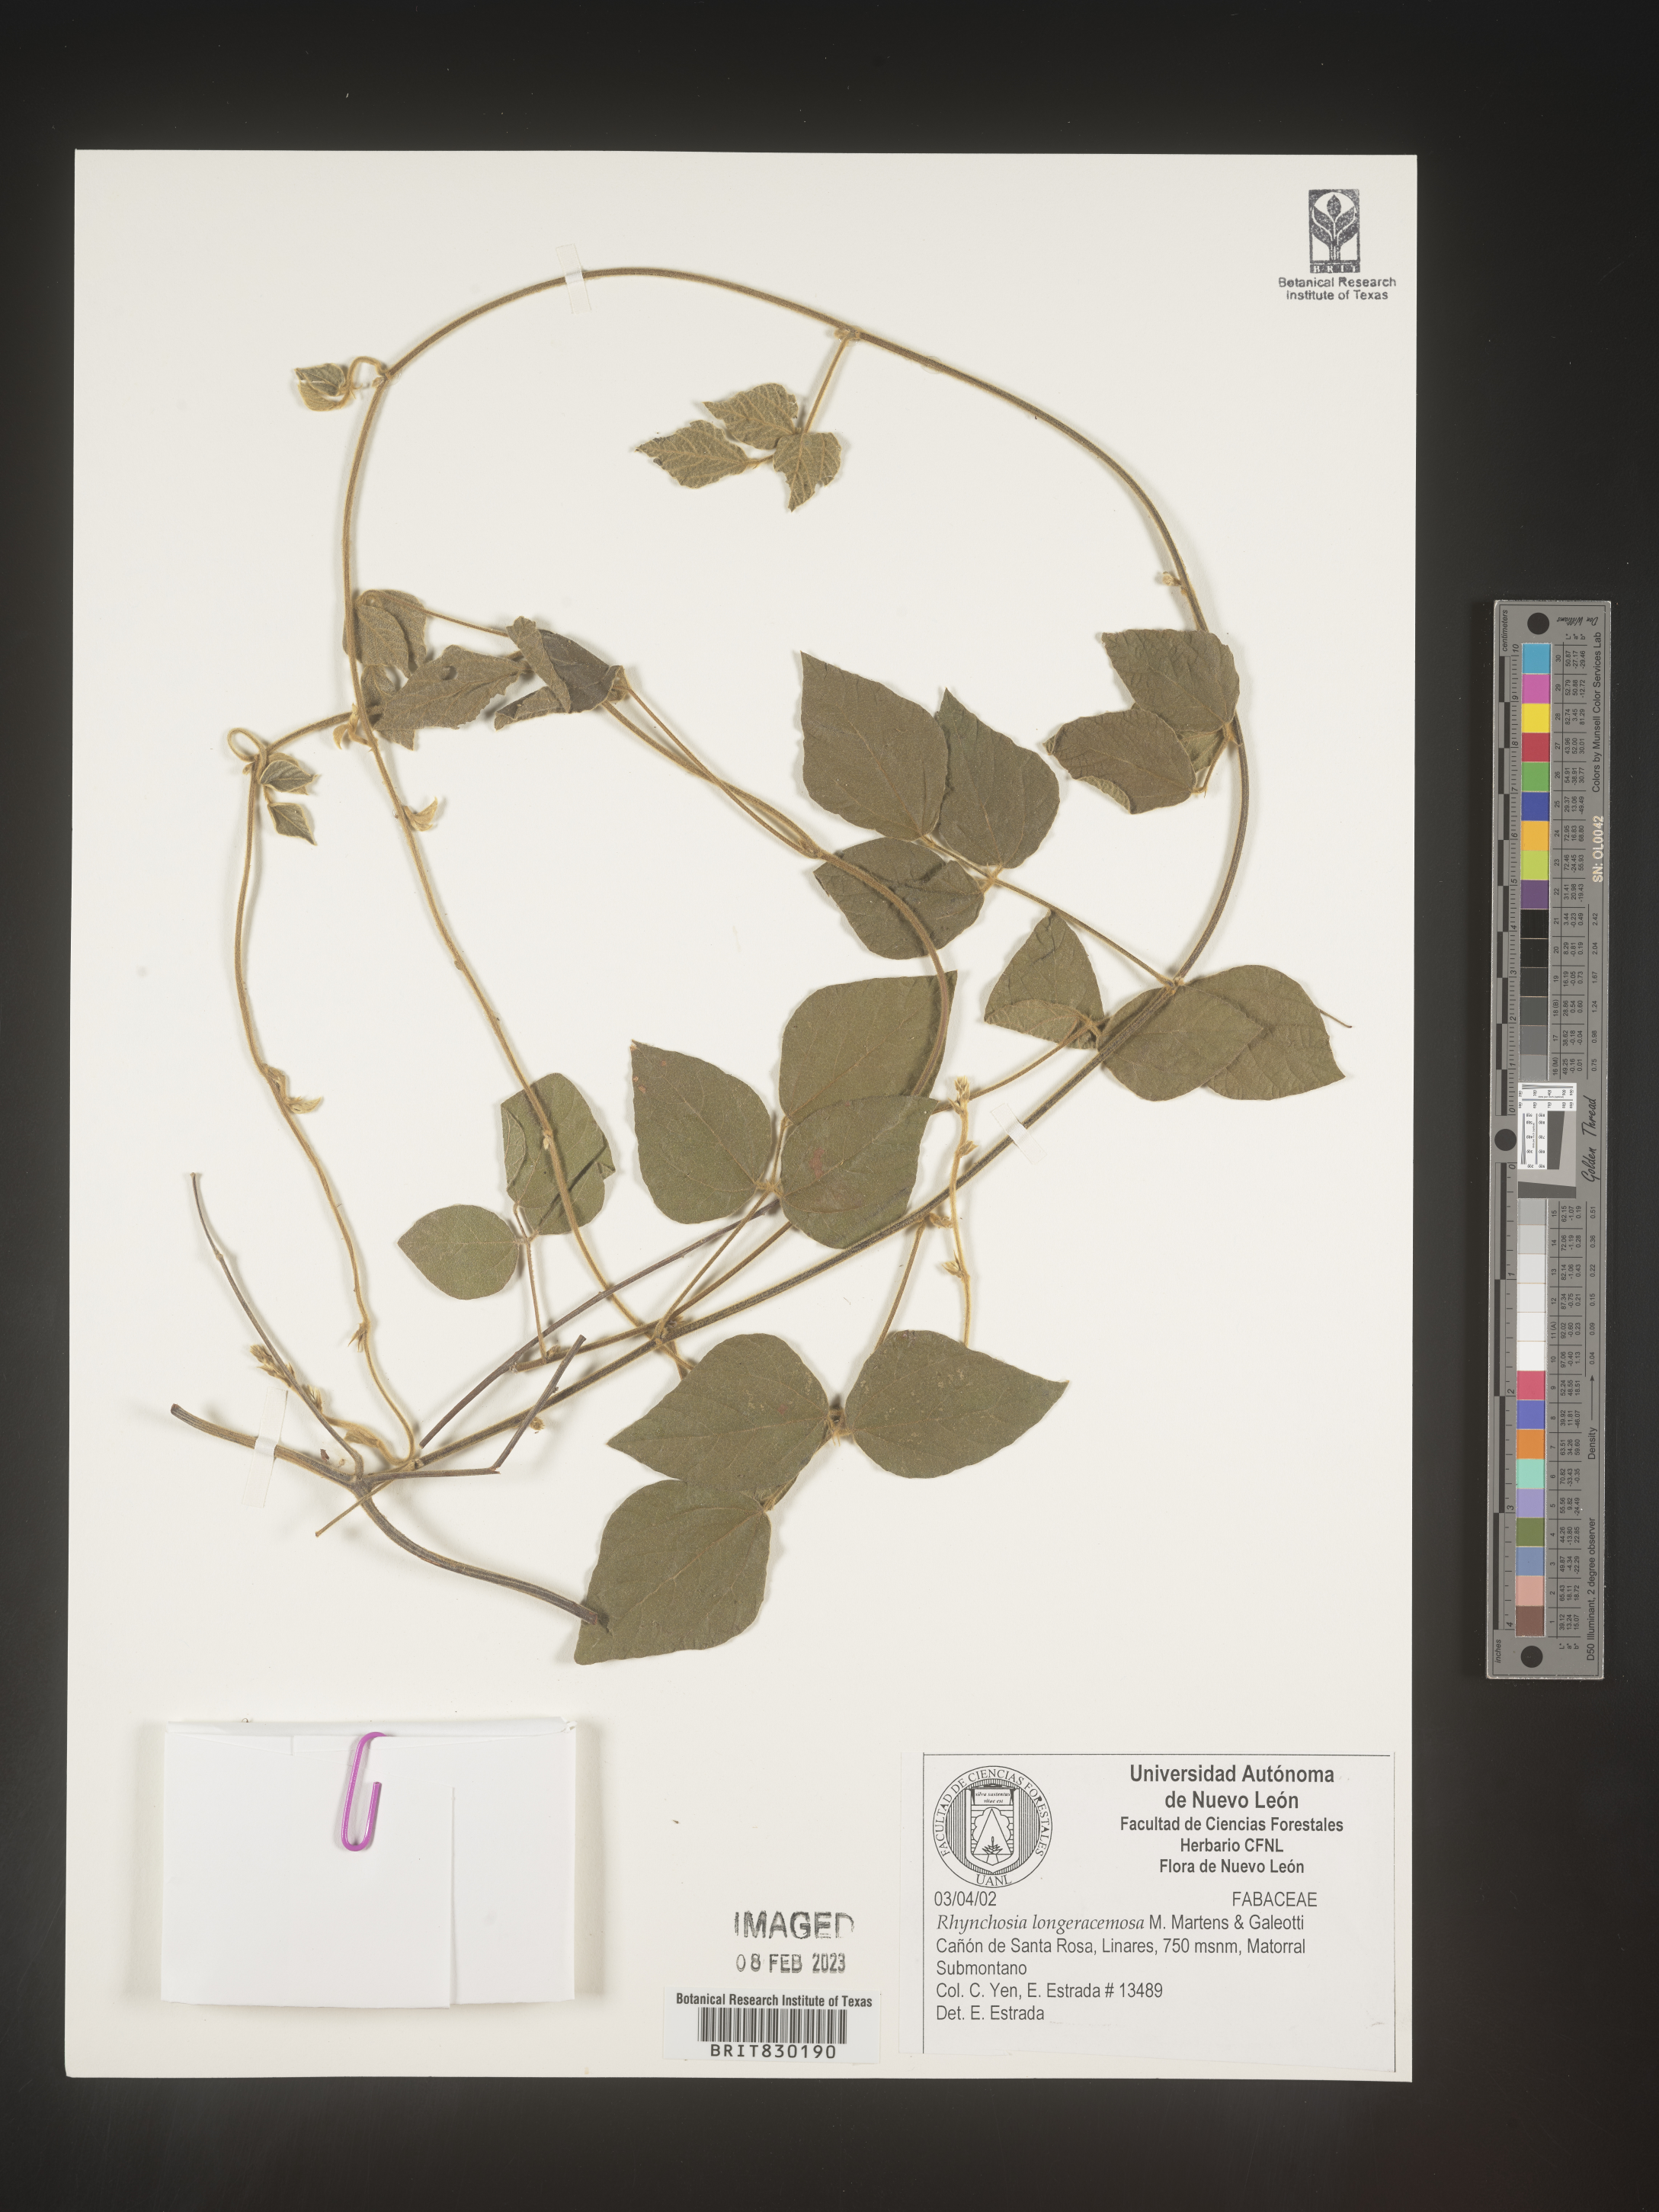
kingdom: Plantae
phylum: Tracheophyta
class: Magnoliopsida
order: Fabales
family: Fabaceae
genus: Rhynchosia
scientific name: Rhynchosia
